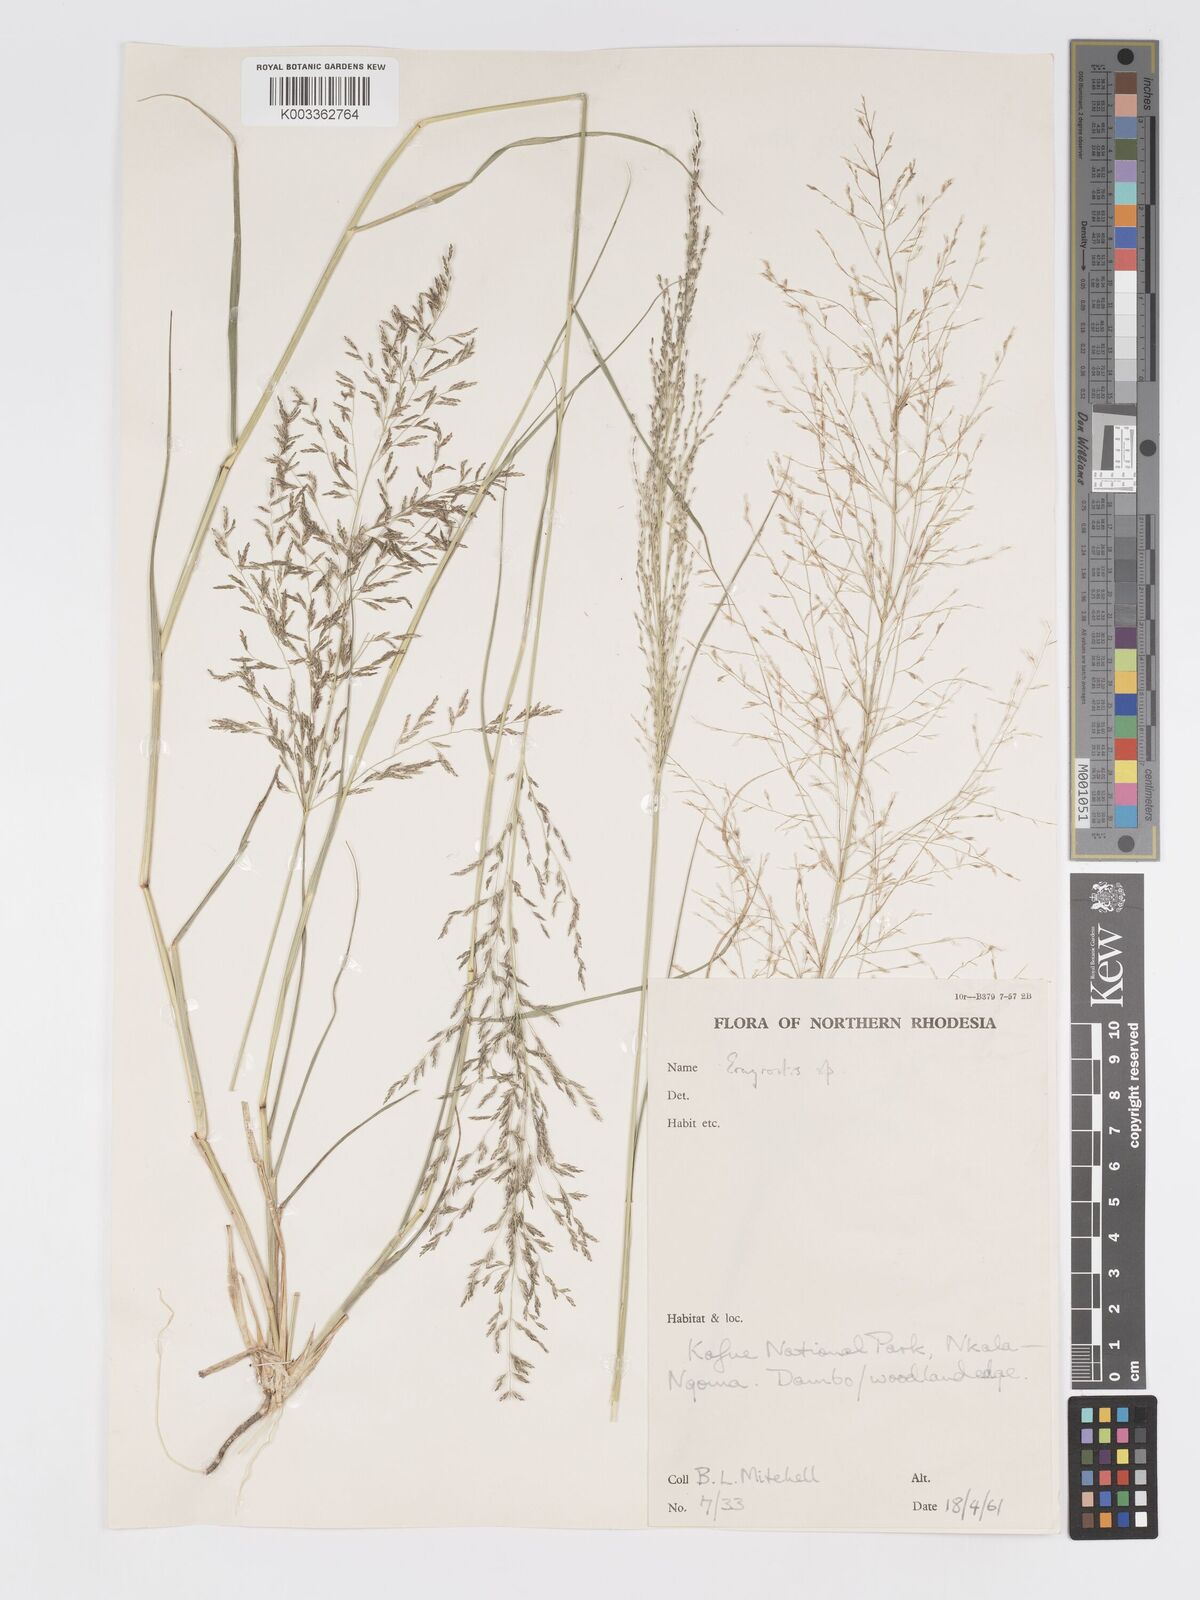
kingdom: Plantae
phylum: Tracheophyta
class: Liliopsida
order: Poales
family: Poaceae
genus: Eragrostis
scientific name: Eragrostis cylindriflora
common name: Cylinderflower lovegrass
